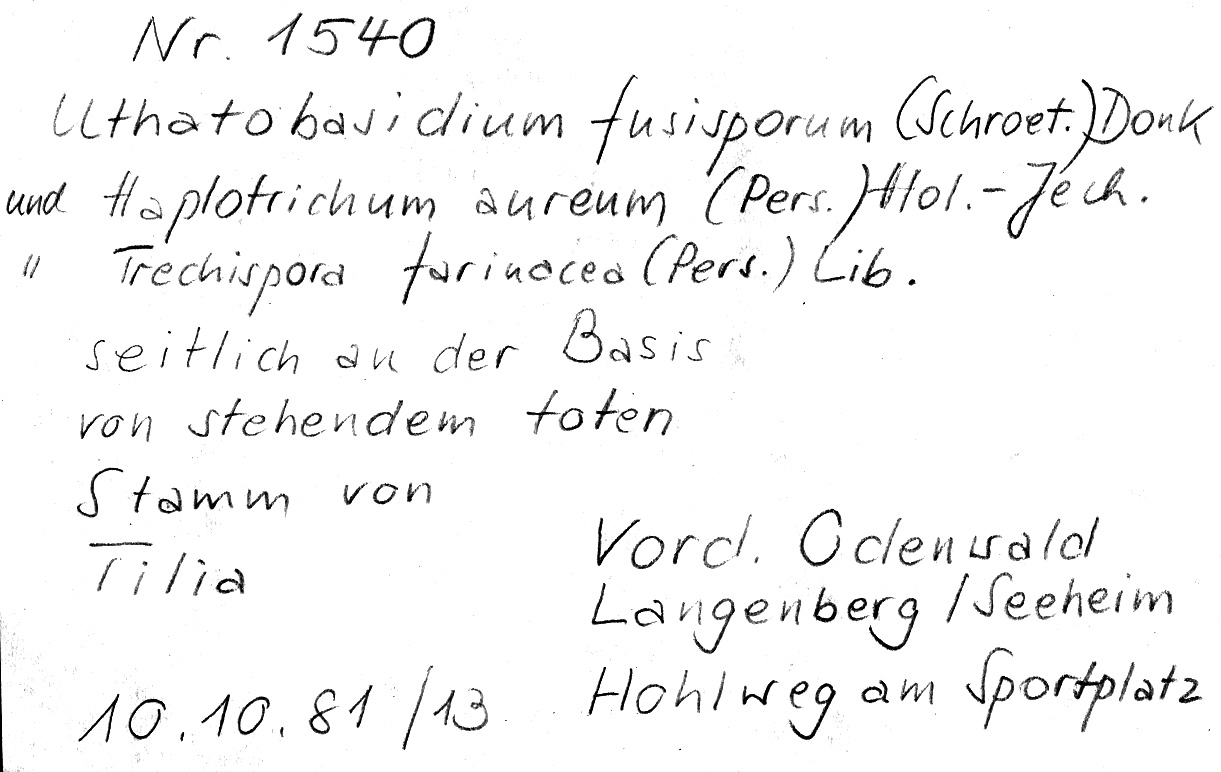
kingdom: Fungi
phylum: Basidiomycota
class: Agaricomycetes
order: Cantharellales
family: Botryobasidiaceae
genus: Botryobasidium
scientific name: Botryobasidium aureum
